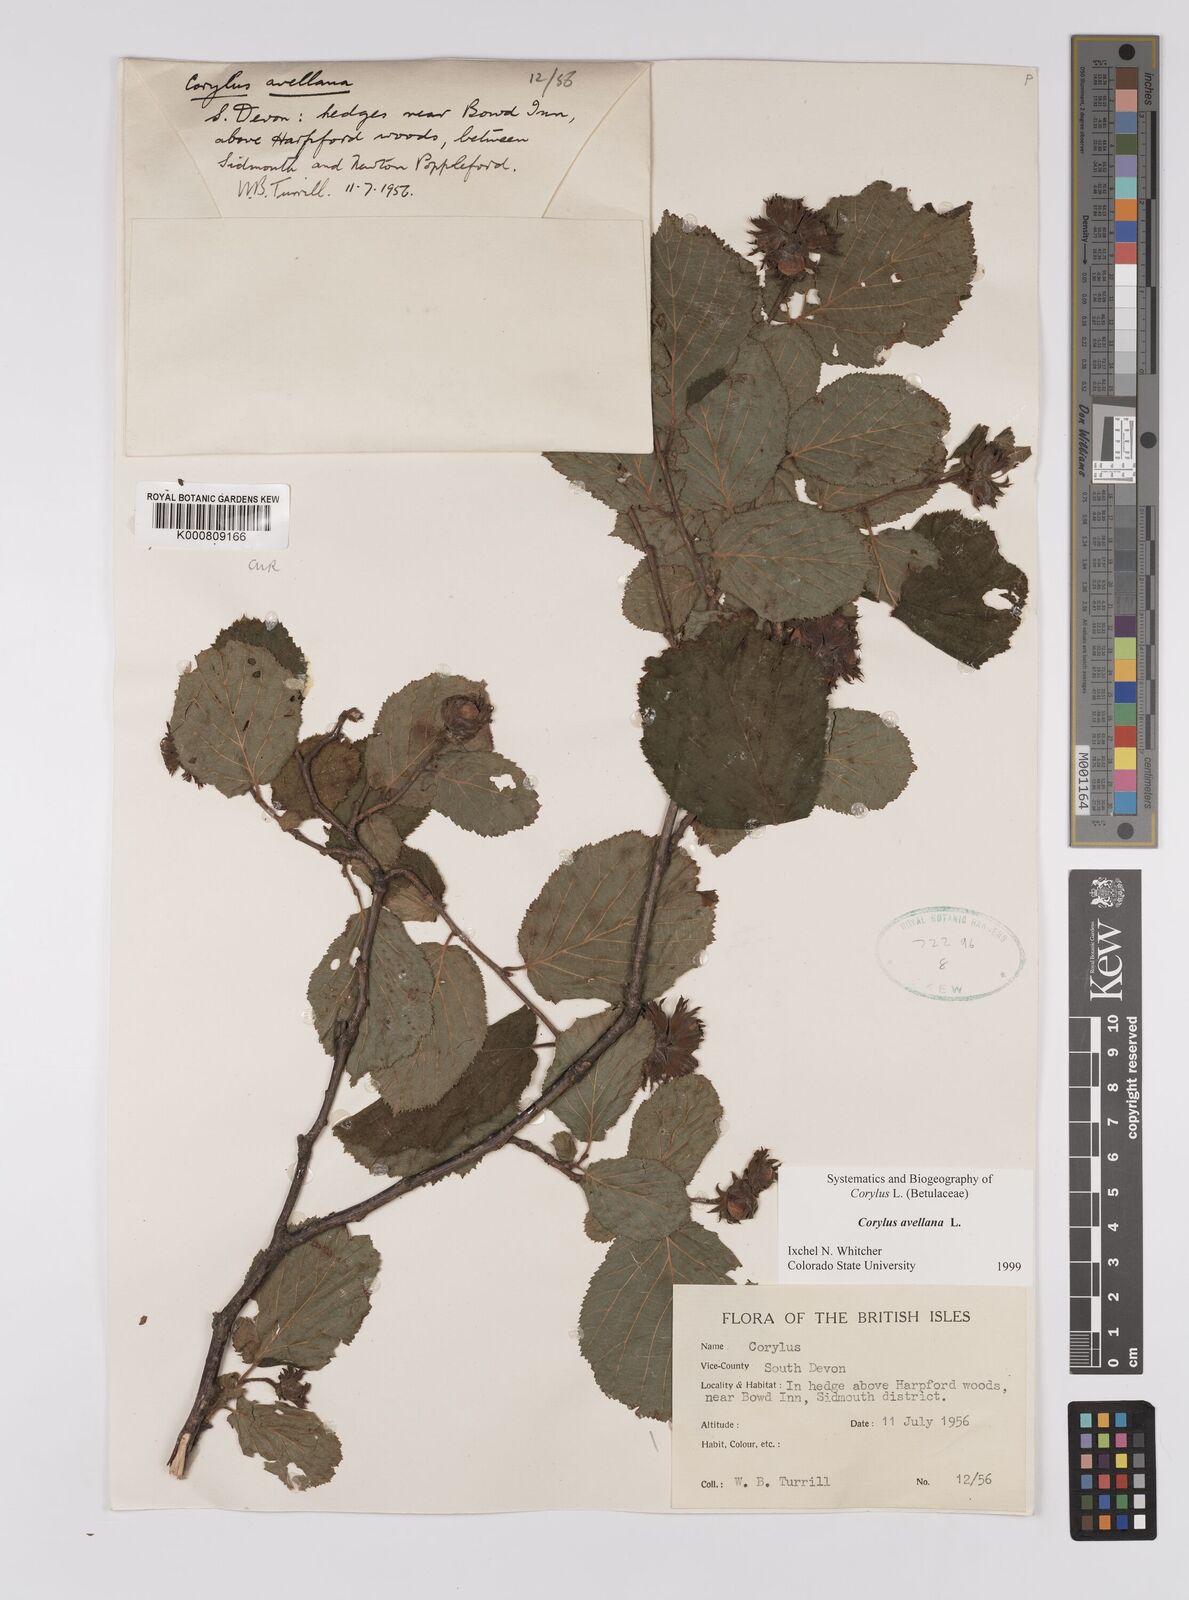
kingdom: Plantae
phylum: Tracheophyta
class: Magnoliopsida
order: Fagales
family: Betulaceae
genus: Corylus
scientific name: Corylus avellana
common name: European hazel
